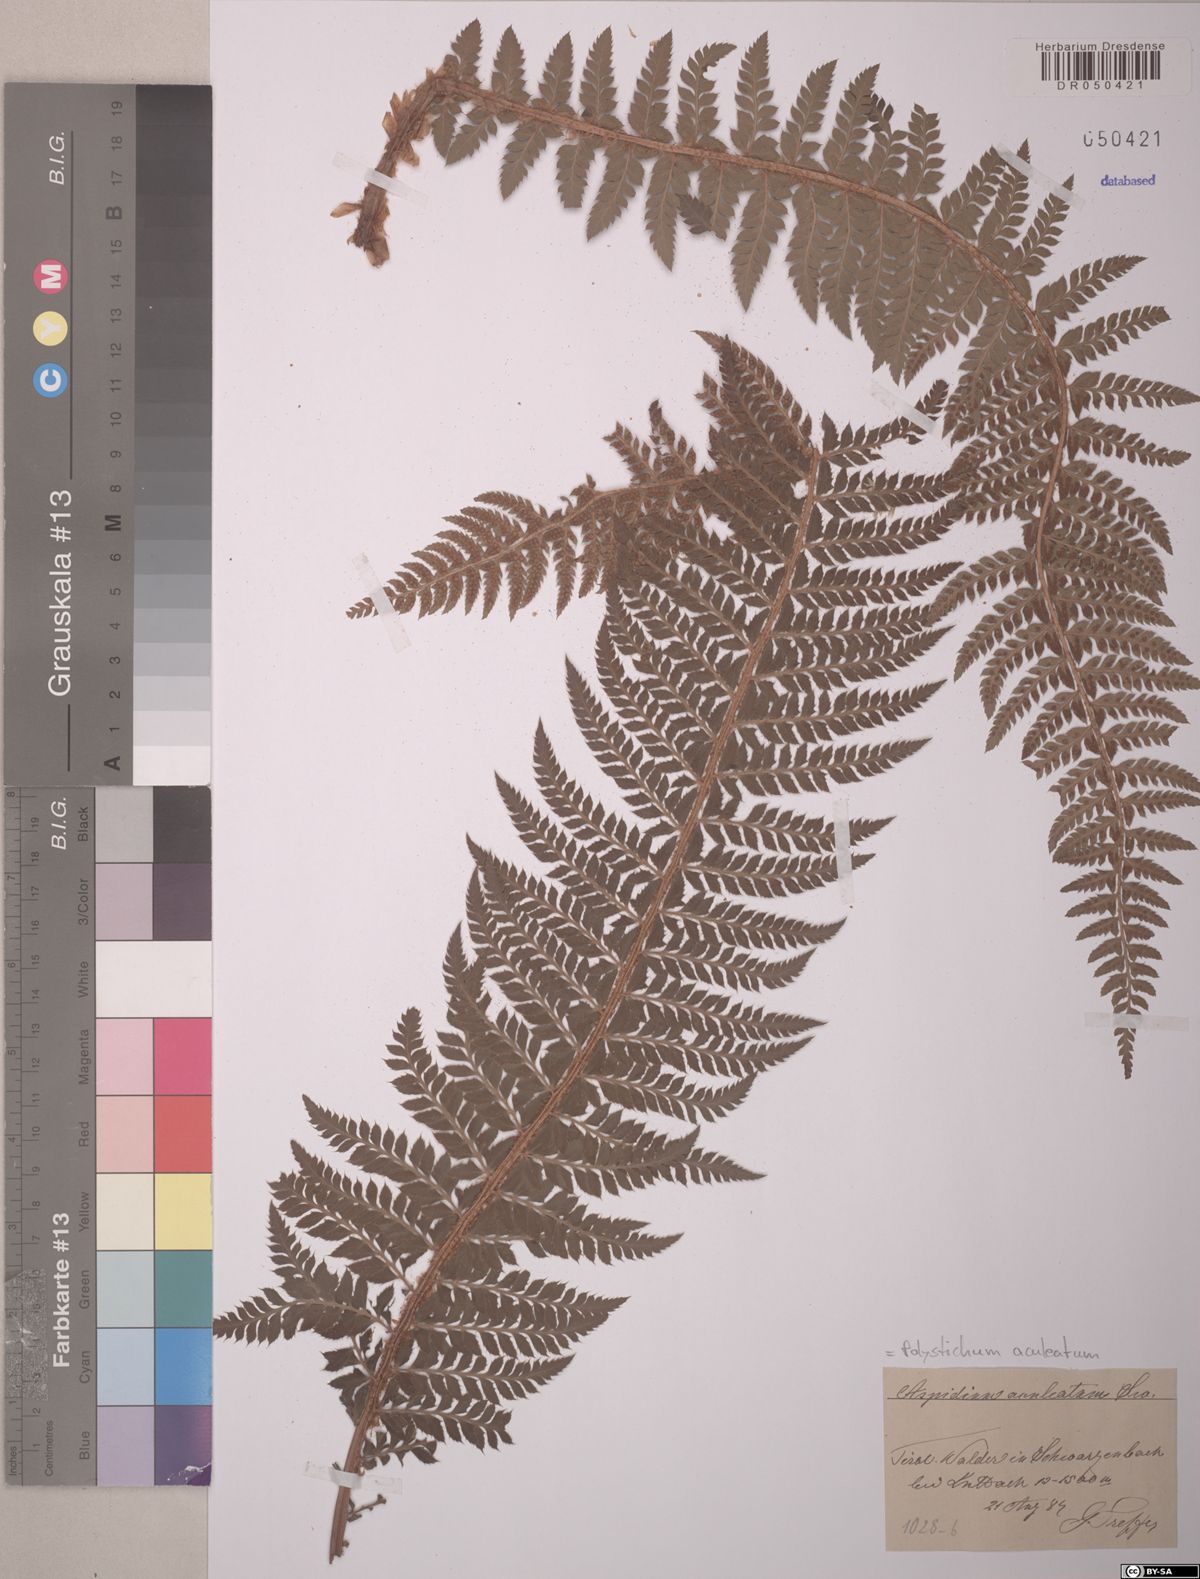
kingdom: Plantae
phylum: Tracheophyta
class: Polypodiopsida
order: Polypodiales
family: Dryopteridaceae
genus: Polystichum
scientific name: Polystichum aculeatum
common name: Hard shield-fern
